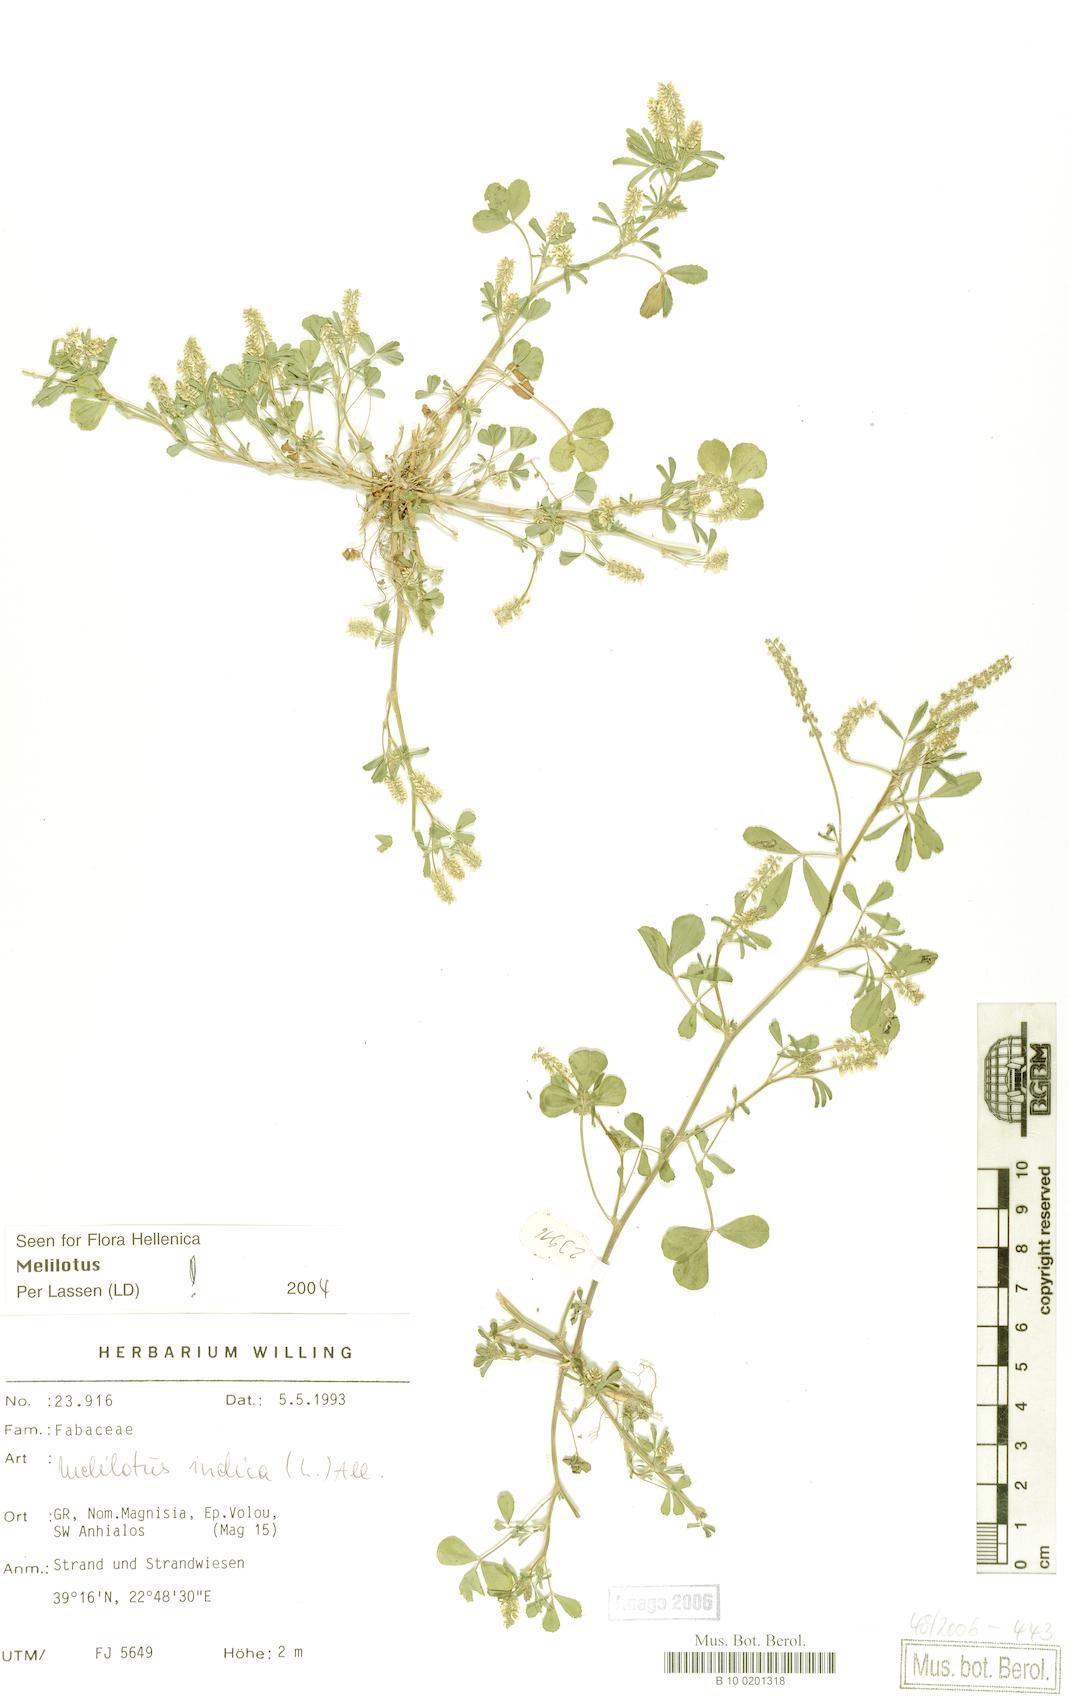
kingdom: Plantae
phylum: Tracheophyta
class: Magnoliopsida
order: Fabales
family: Fabaceae
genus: Melilotus
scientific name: Melilotus indicus
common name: Small melilot
